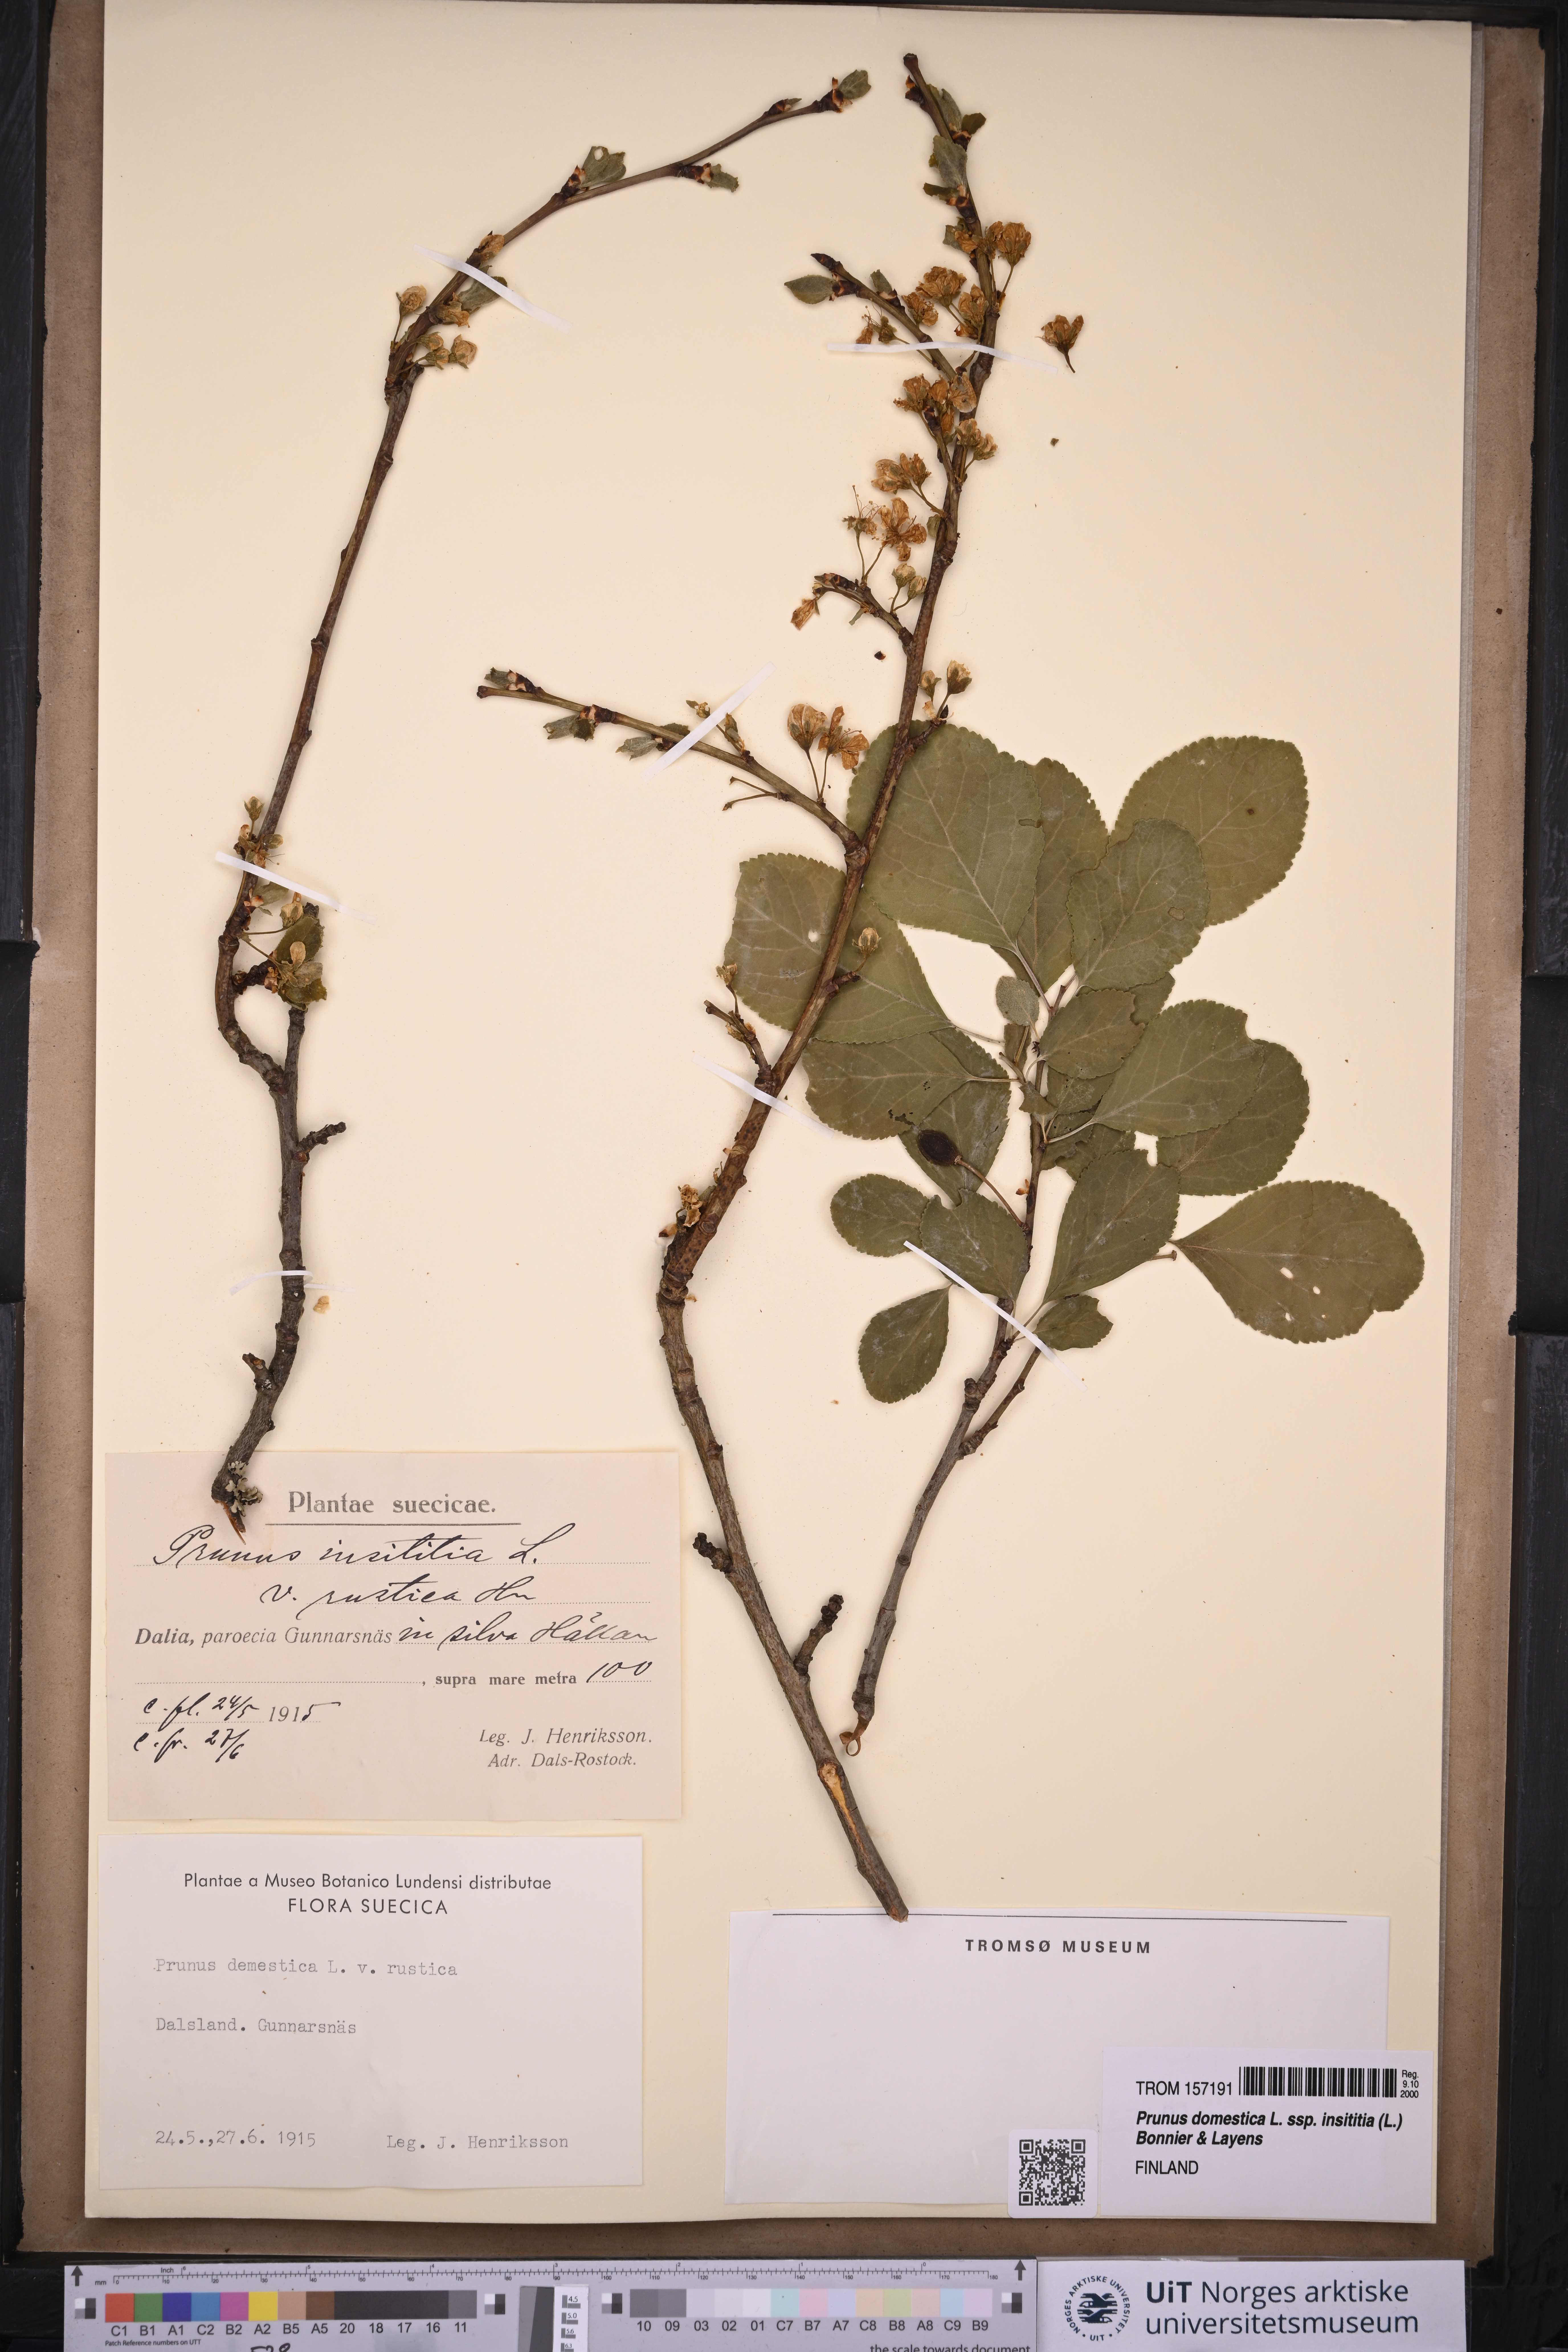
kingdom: Plantae
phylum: Tracheophyta
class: Magnoliopsida
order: Rosales
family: Rosaceae
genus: Prunus
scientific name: Prunus domestica
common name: Wild plum
